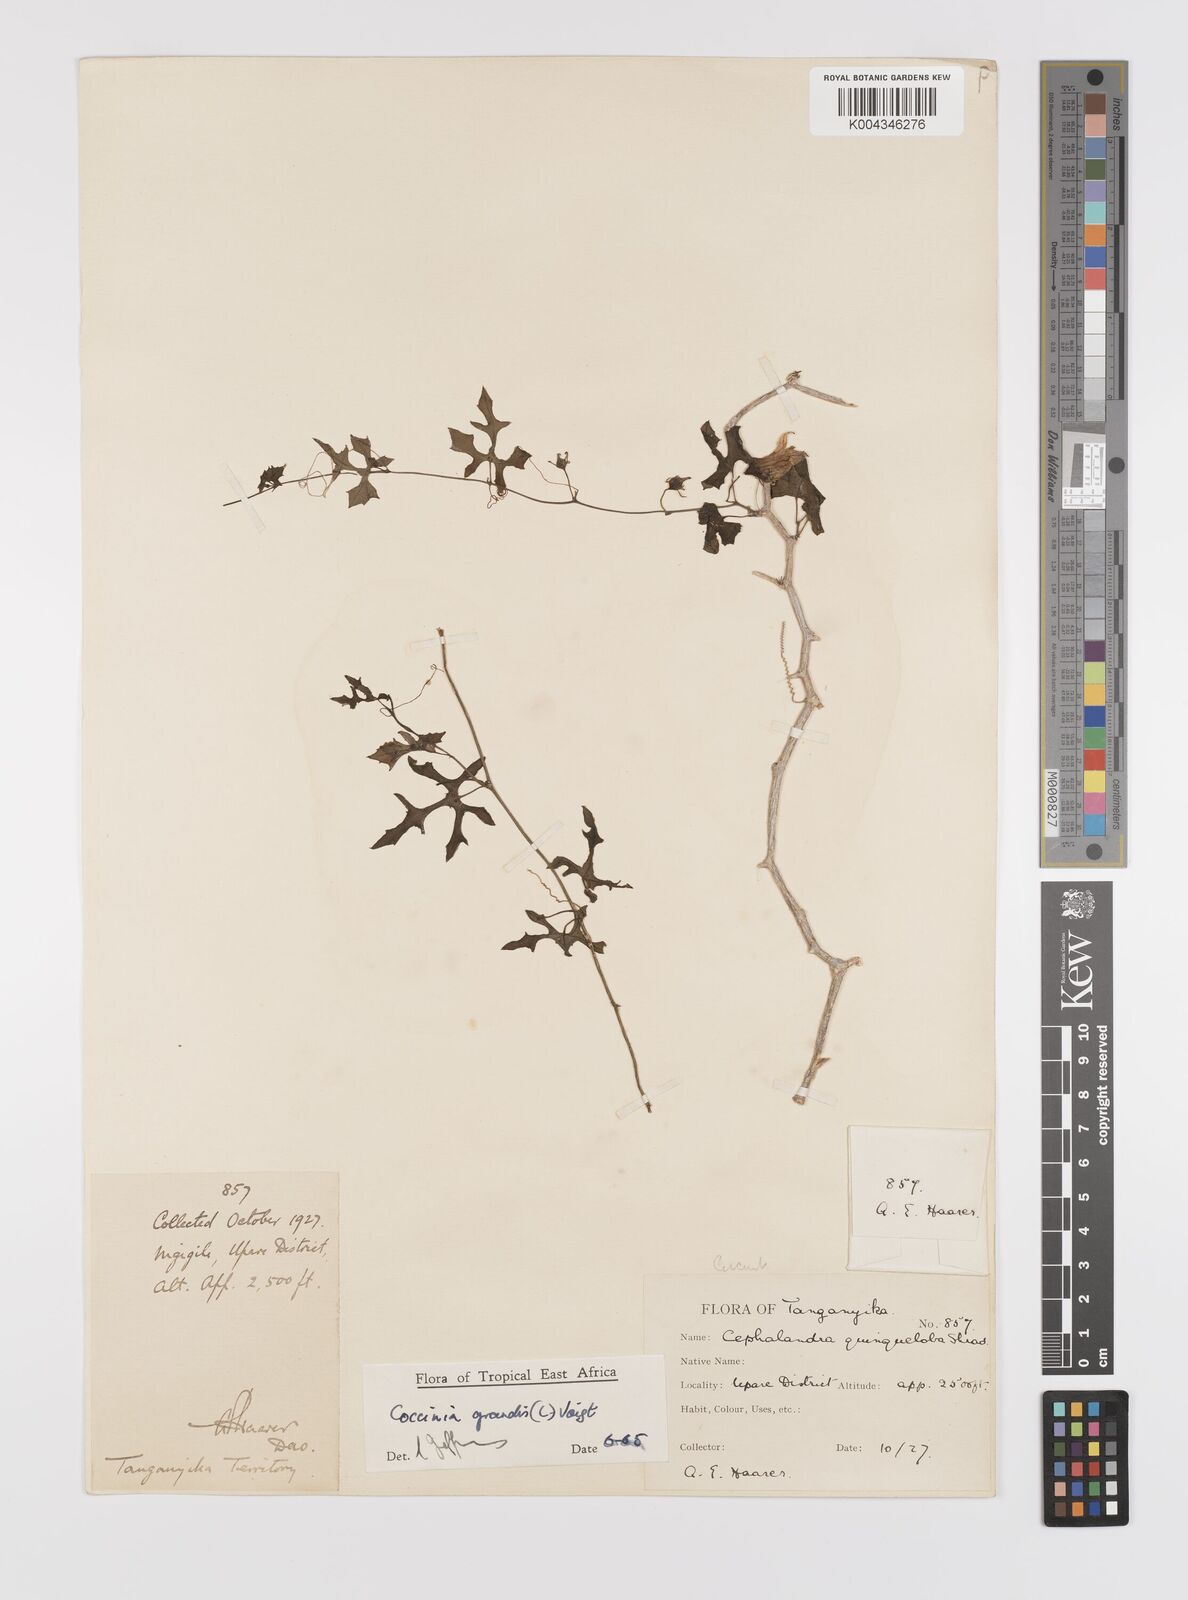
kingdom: Plantae
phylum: Tracheophyta
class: Magnoliopsida
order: Cucurbitales
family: Cucurbitaceae
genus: Coccinia
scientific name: Coccinia grandis
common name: Ivy gourd
